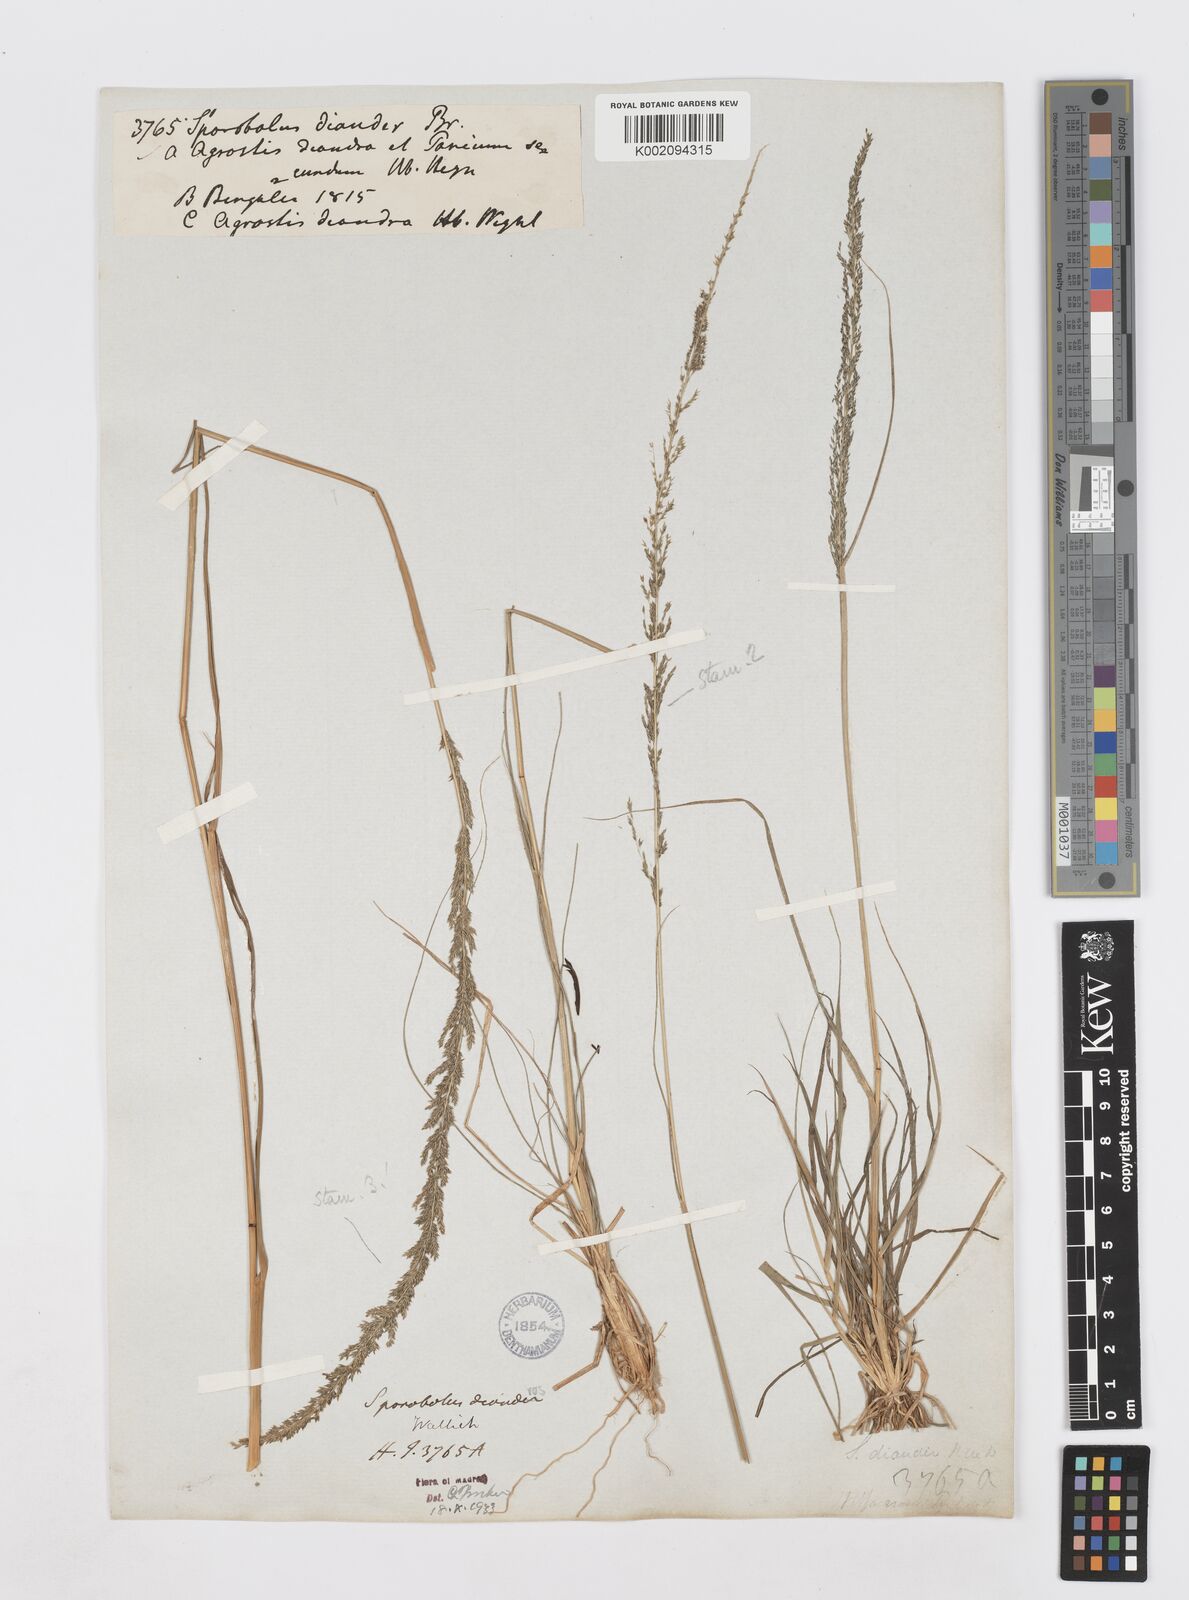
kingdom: Plantae
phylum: Tracheophyta
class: Liliopsida
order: Poales
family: Poaceae
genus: Sporobolus
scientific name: Sporobolus diandrus
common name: Tussock dropseed
